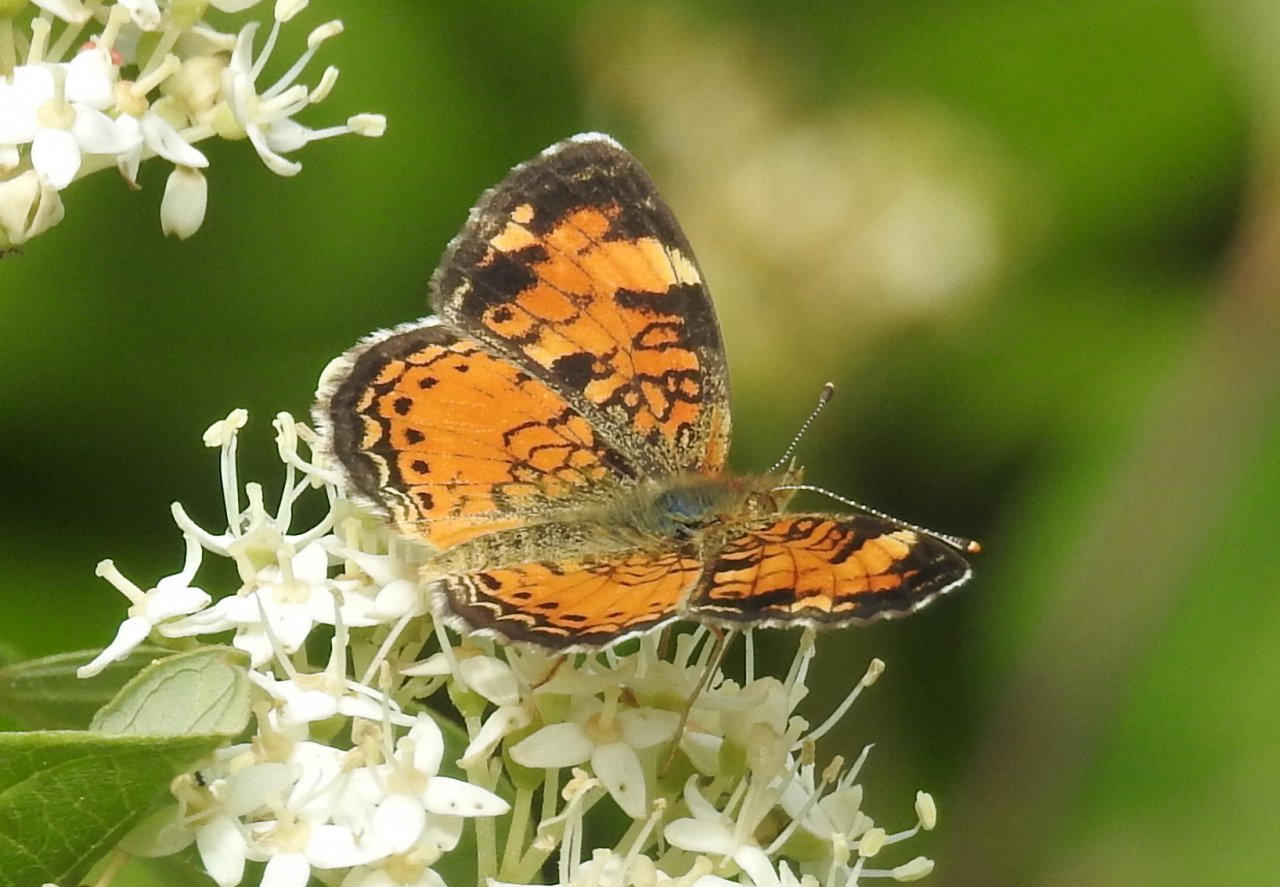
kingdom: Animalia
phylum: Arthropoda
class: Insecta
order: Lepidoptera
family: Nymphalidae
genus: Phyciodes
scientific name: Phyciodes tharos
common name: Northern Crescent
